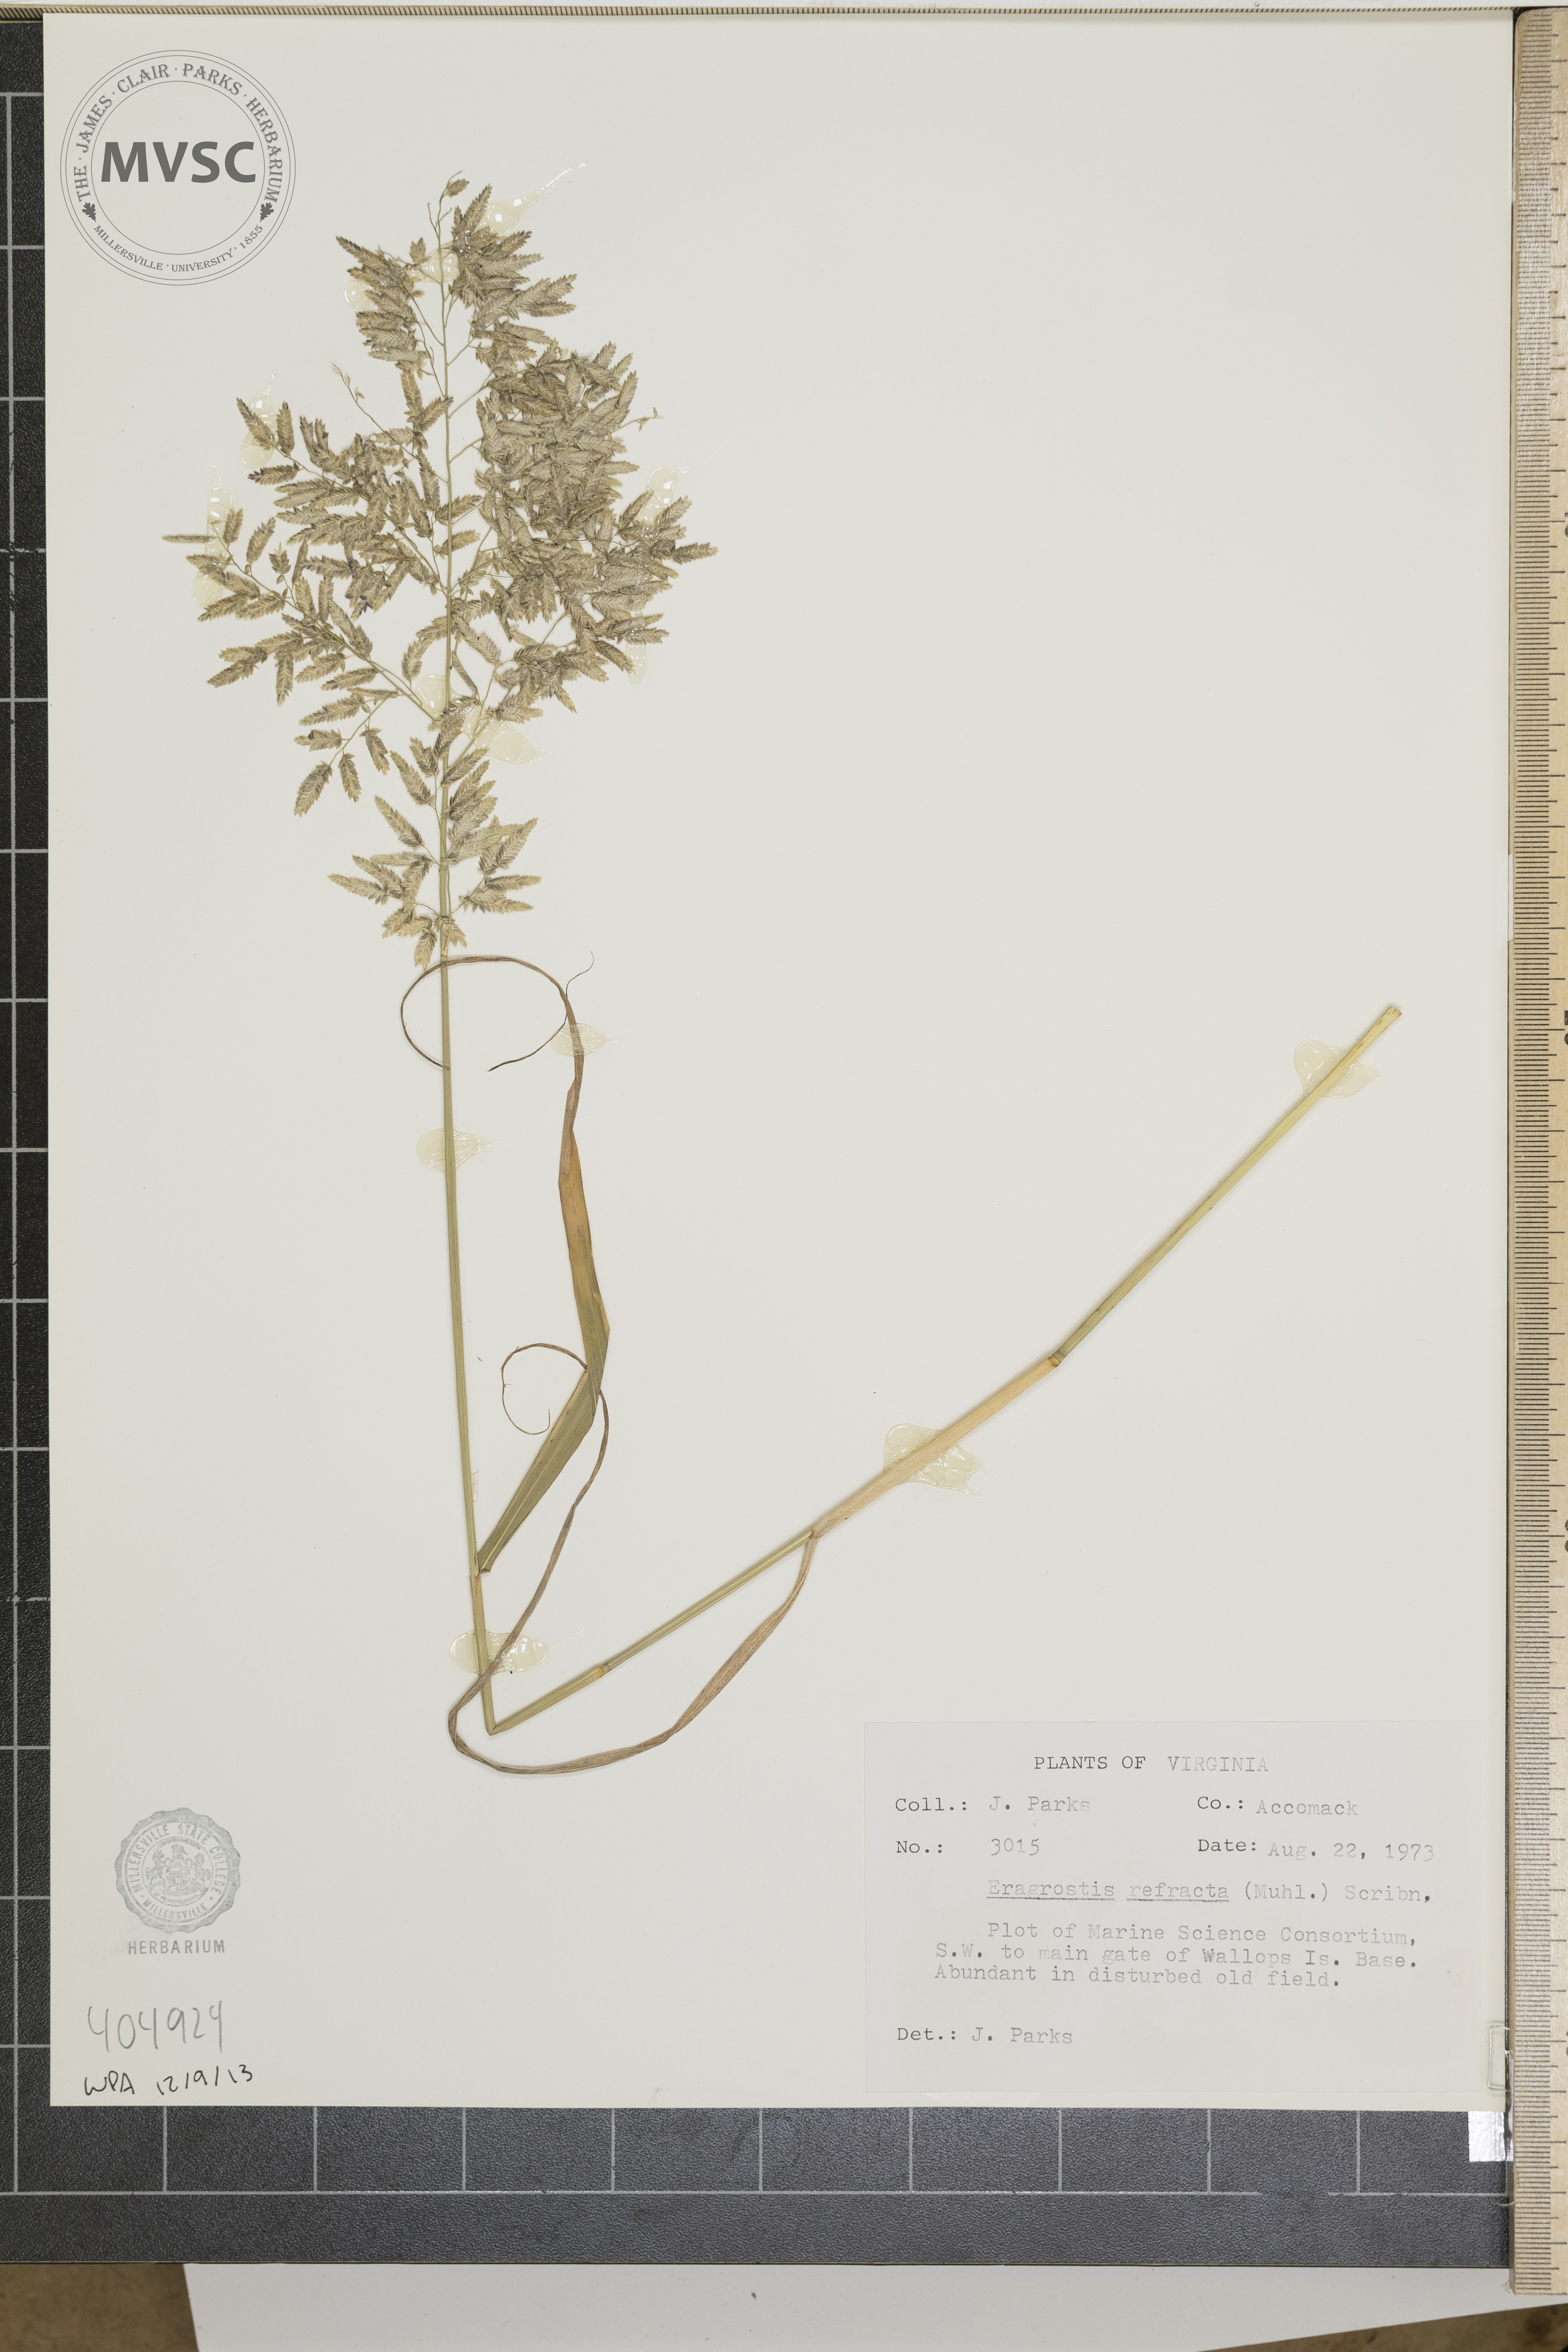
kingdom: Plantae
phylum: Tracheophyta
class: Liliopsida
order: Poales
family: Poaceae
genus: Eragrostis
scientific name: Eragrostis refracta
